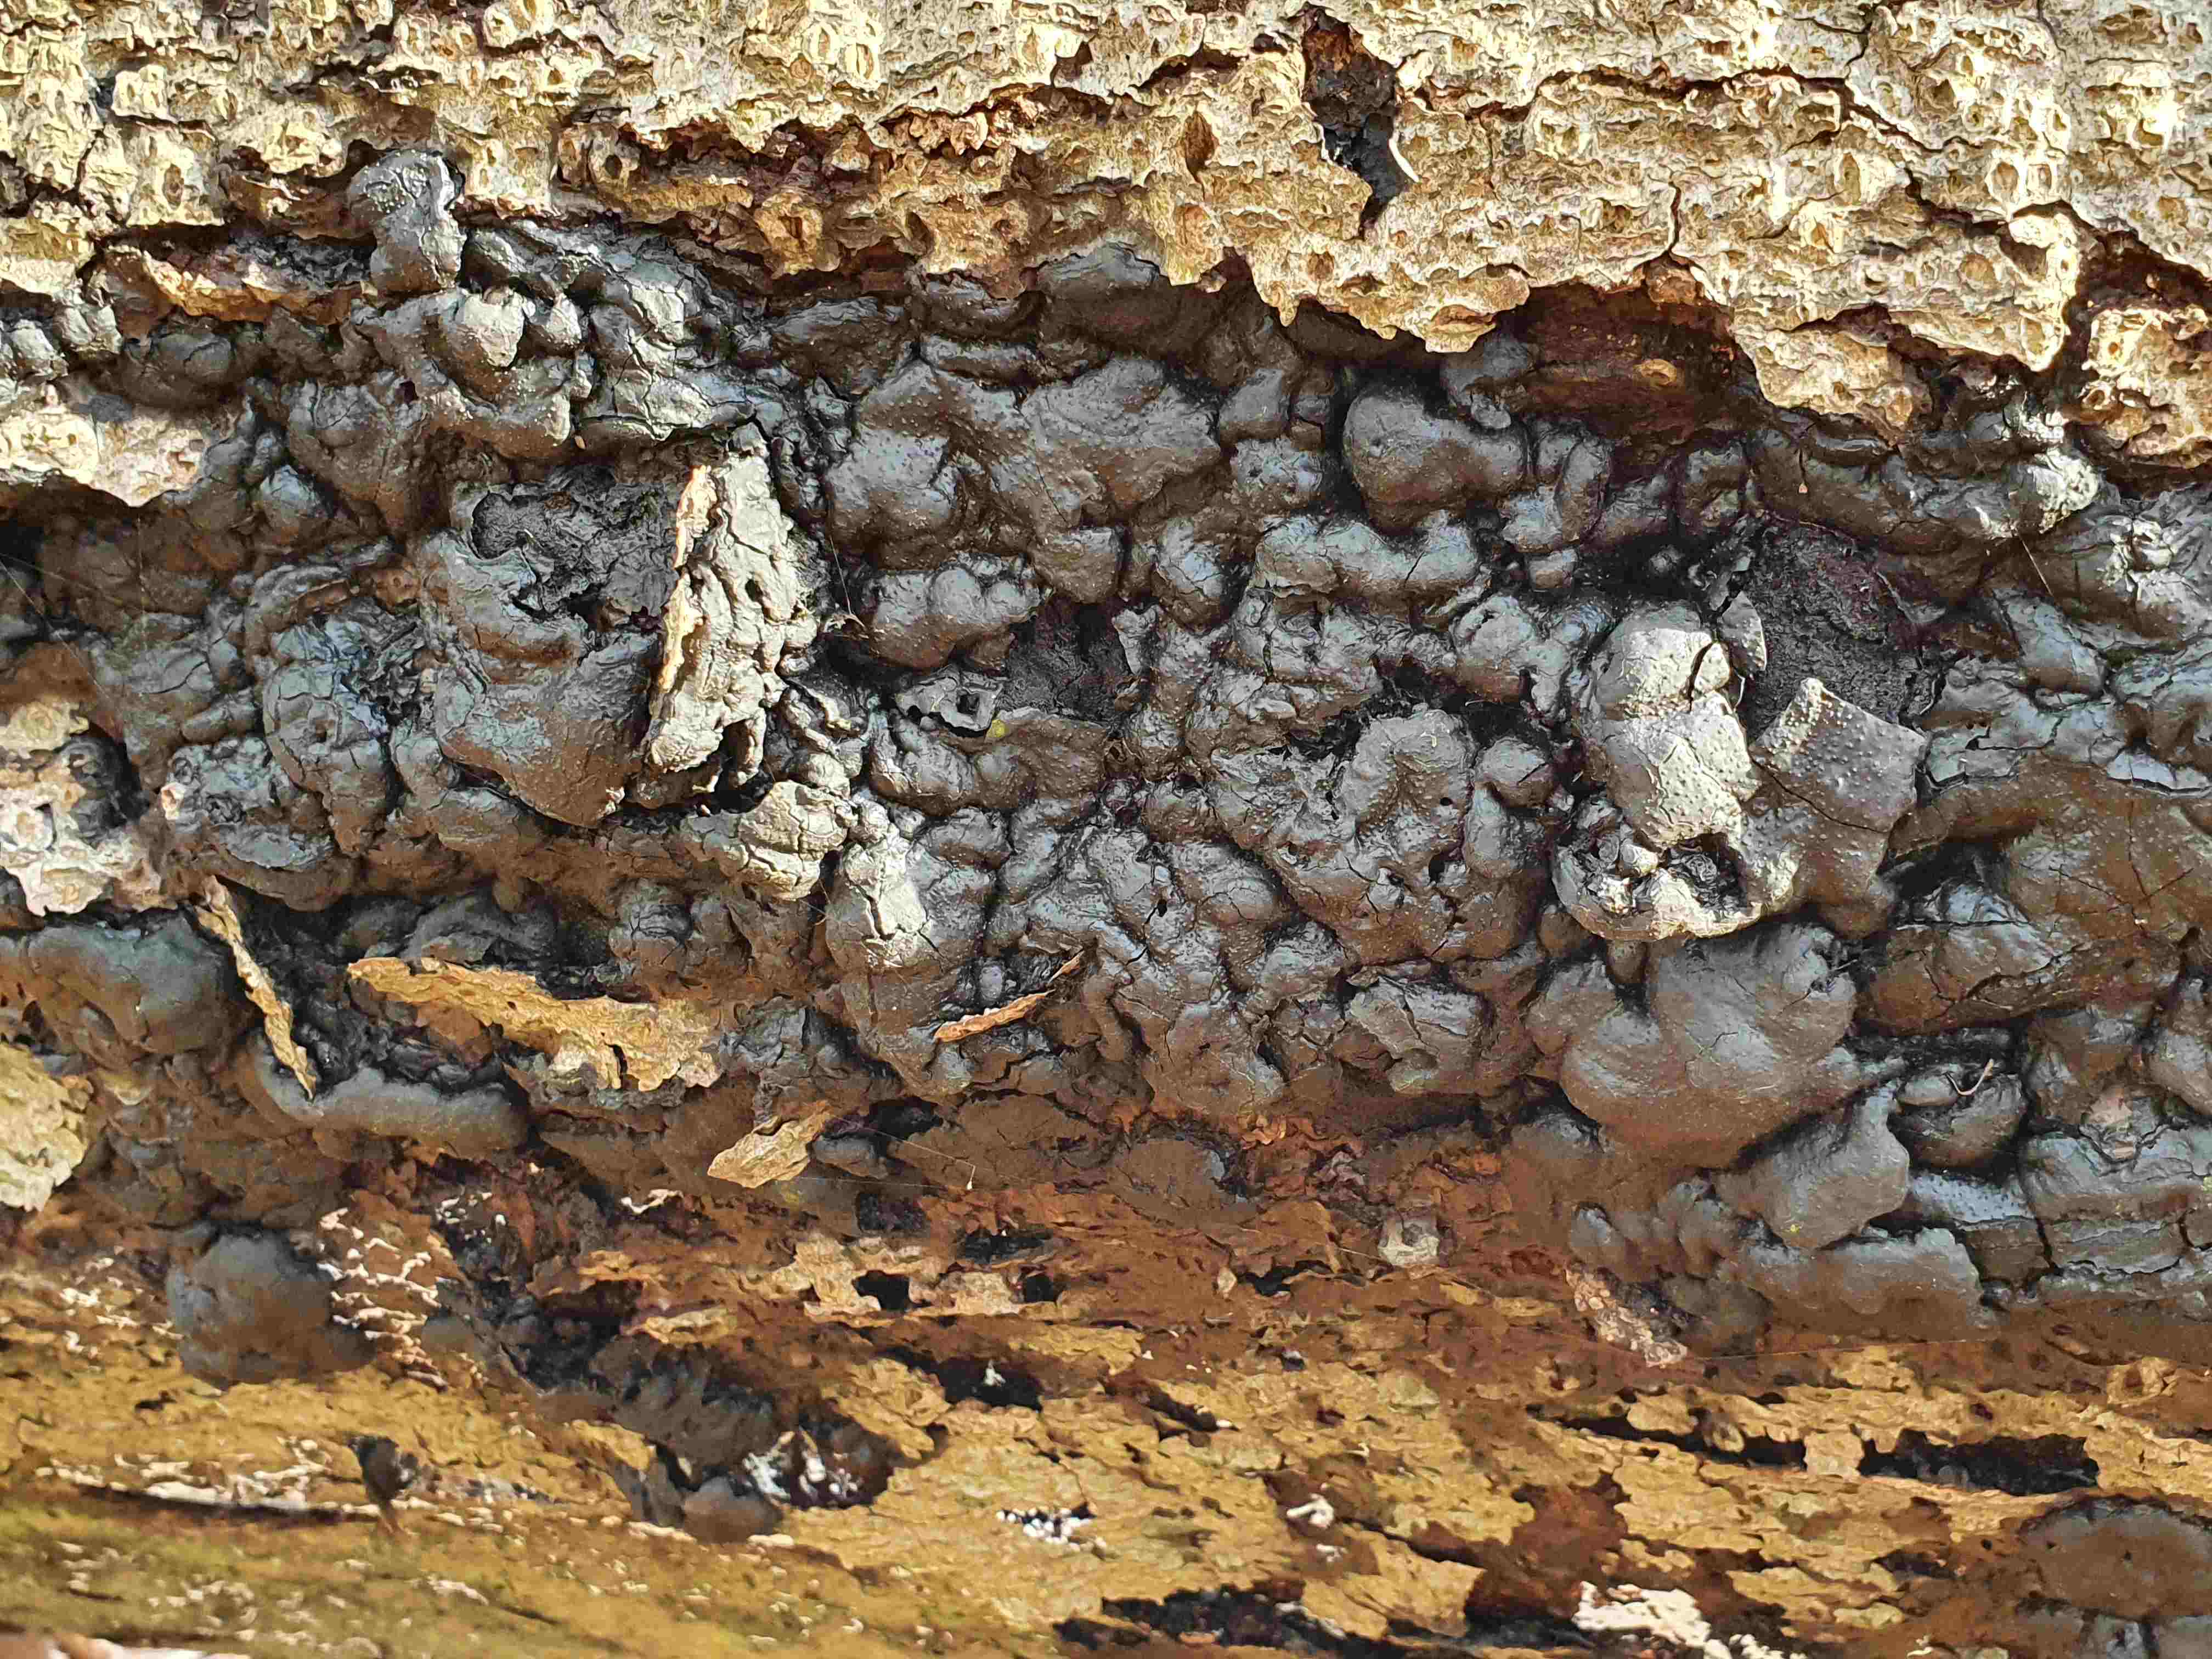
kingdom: Fungi
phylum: Ascomycota
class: Sordariomycetes
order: Xylariales
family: Xylariaceae
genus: Kretzschmaria
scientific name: Kretzschmaria deusta
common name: stor kulsvamp
